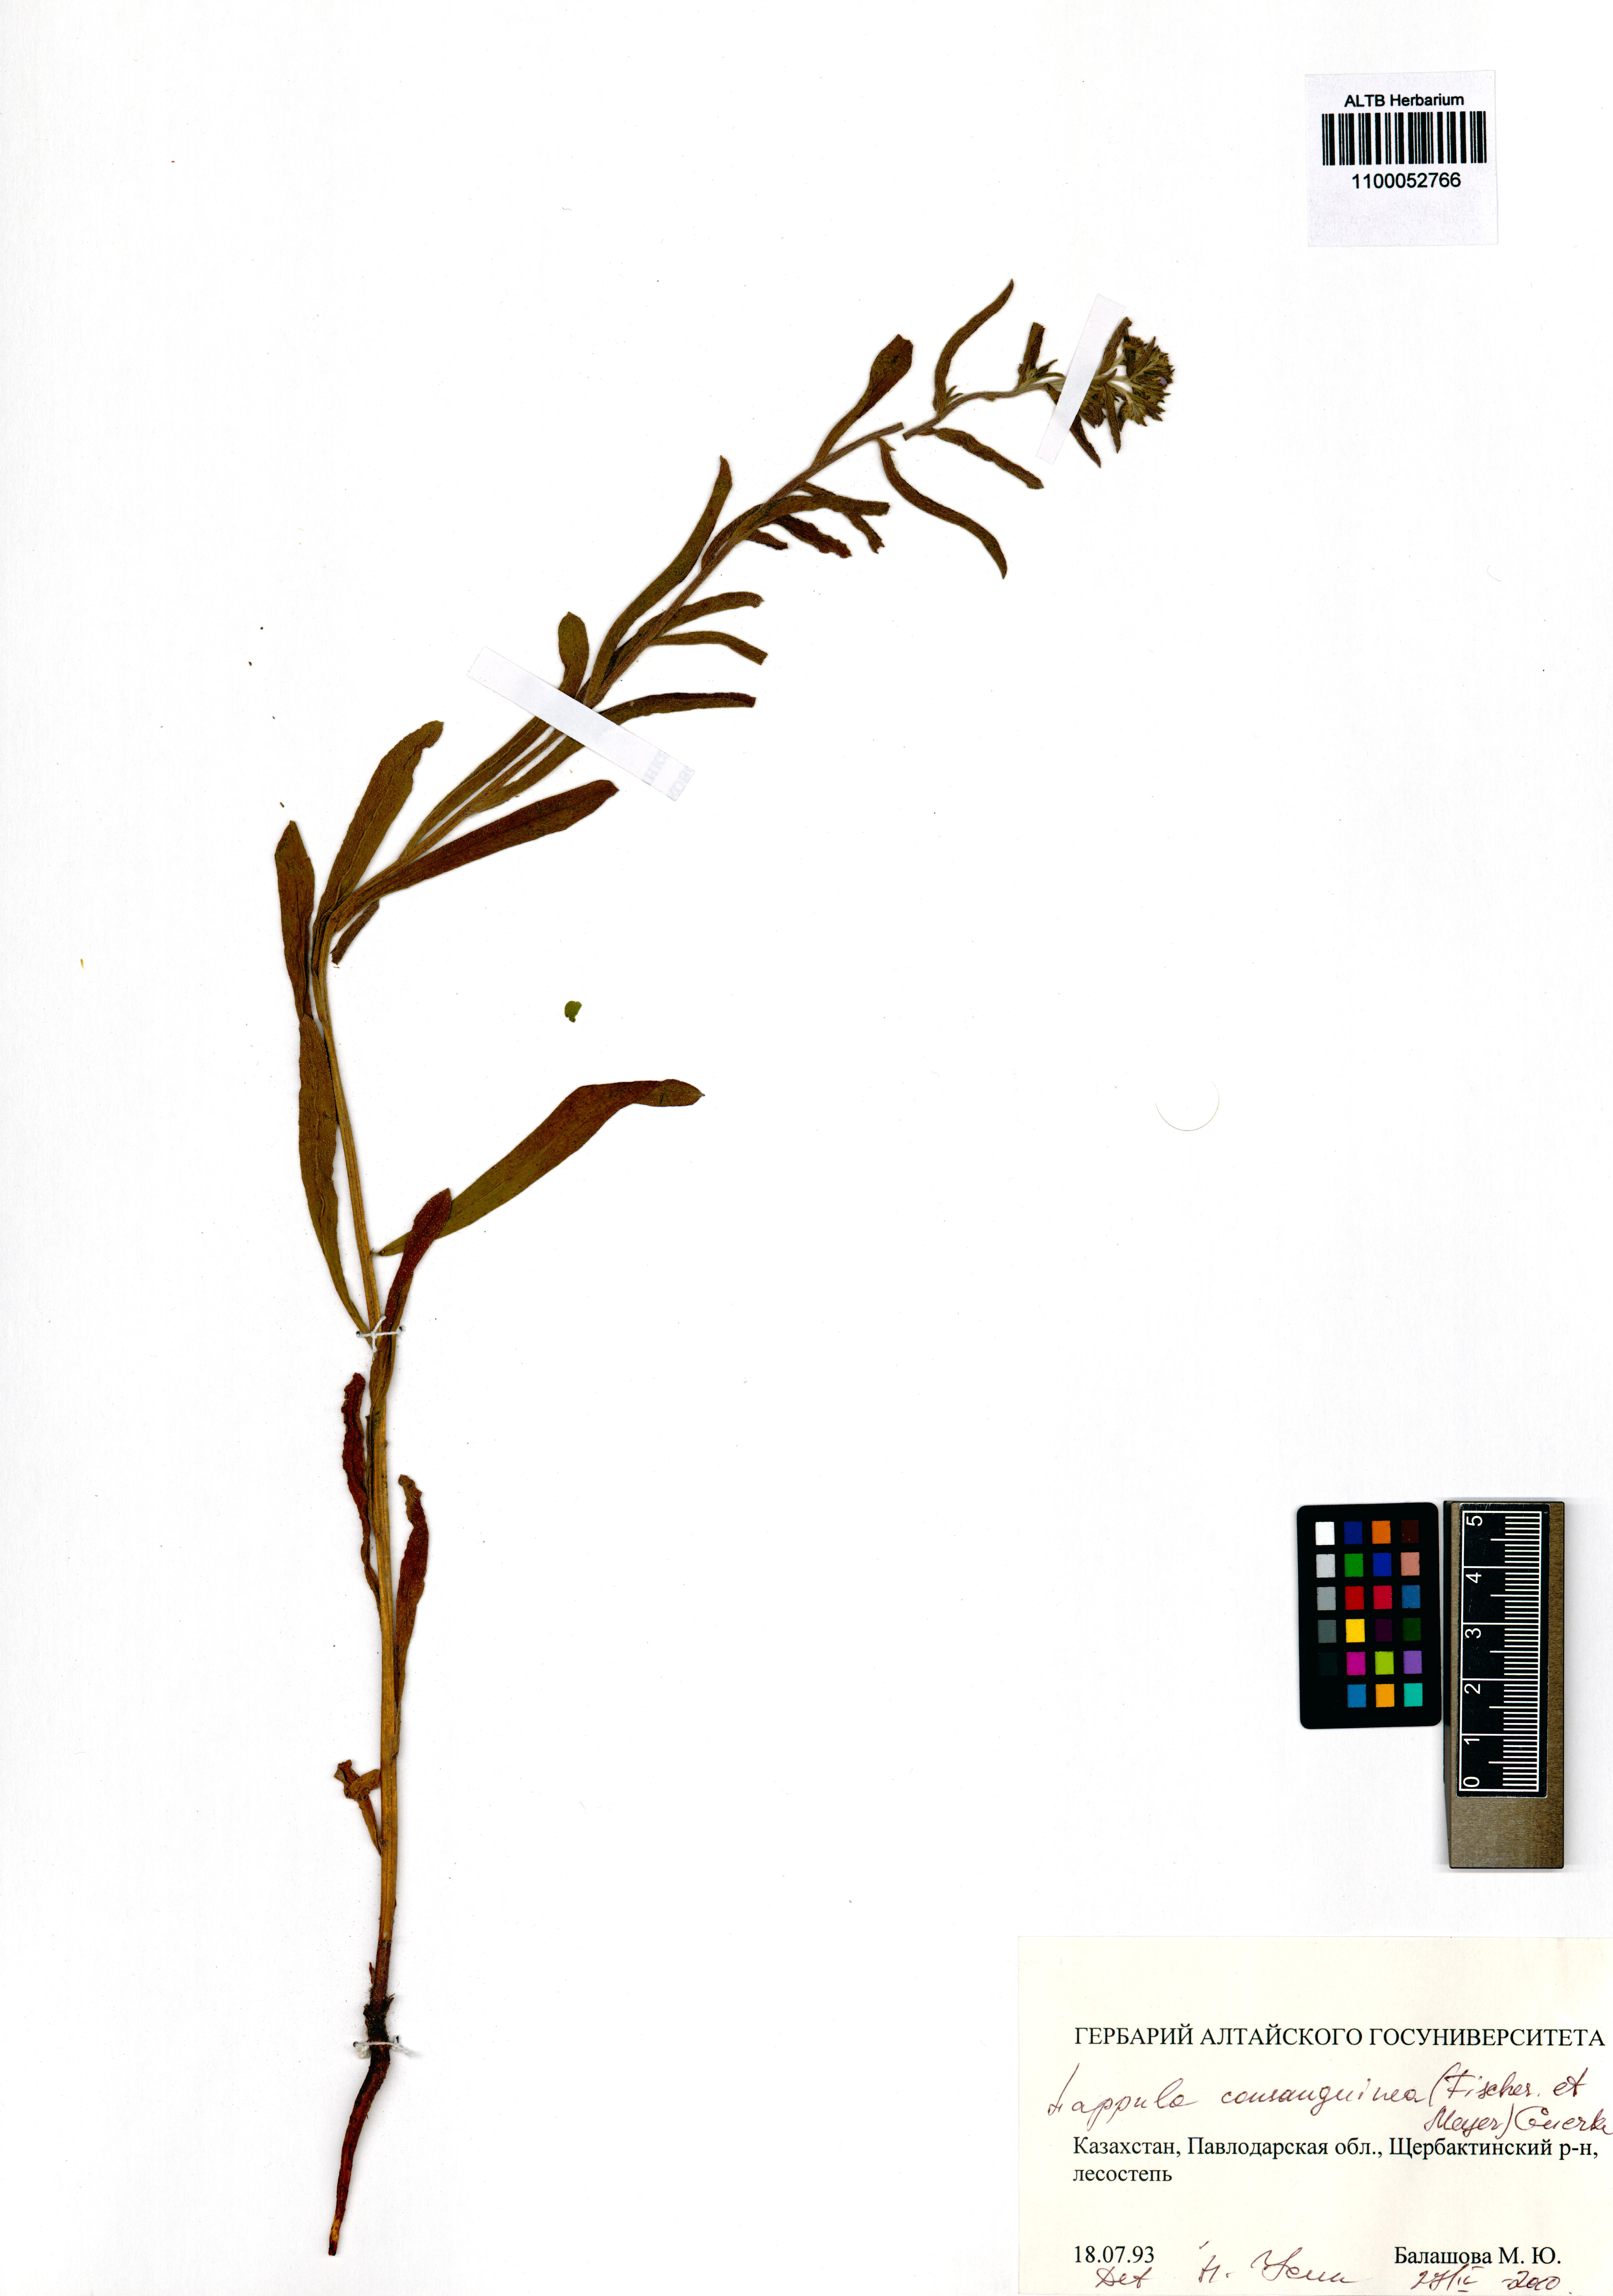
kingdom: Plantae
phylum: Tracheophyta
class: Magnoliopsida
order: Boraginales
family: Boraginaceae
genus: Lappula
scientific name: Lappula squarrosa
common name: European stickseed
